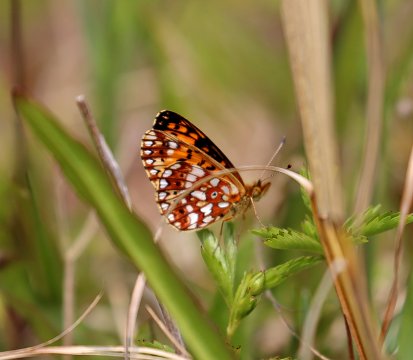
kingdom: Animalia
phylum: Arthropoda
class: Insecta
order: Lepidoptera
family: Nymphalidae
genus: Boloria
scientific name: Boloria selene
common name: Silver-bordered Fritillary
